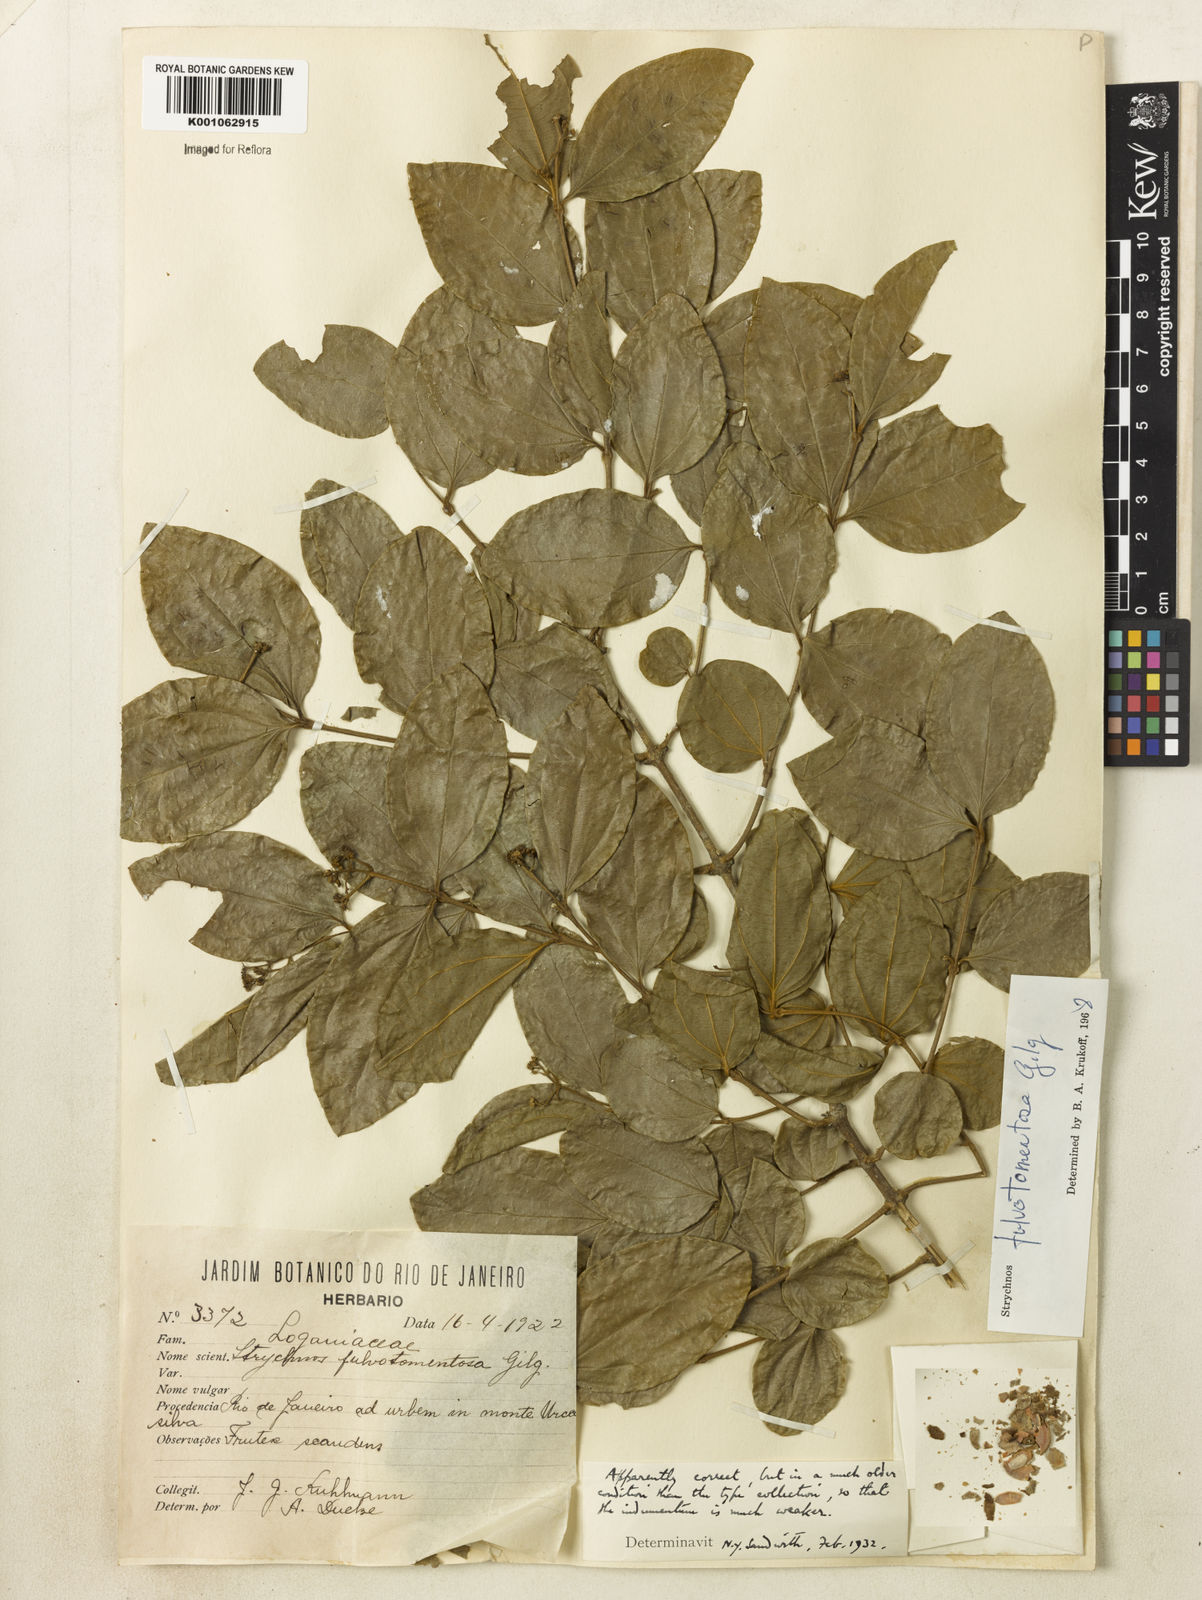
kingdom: Plantae
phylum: Tracheophyta
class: Magnoliopsida
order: Gentianales
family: Loganiaceae
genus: Strychnos
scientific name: Strychnos fulvotomentosa
